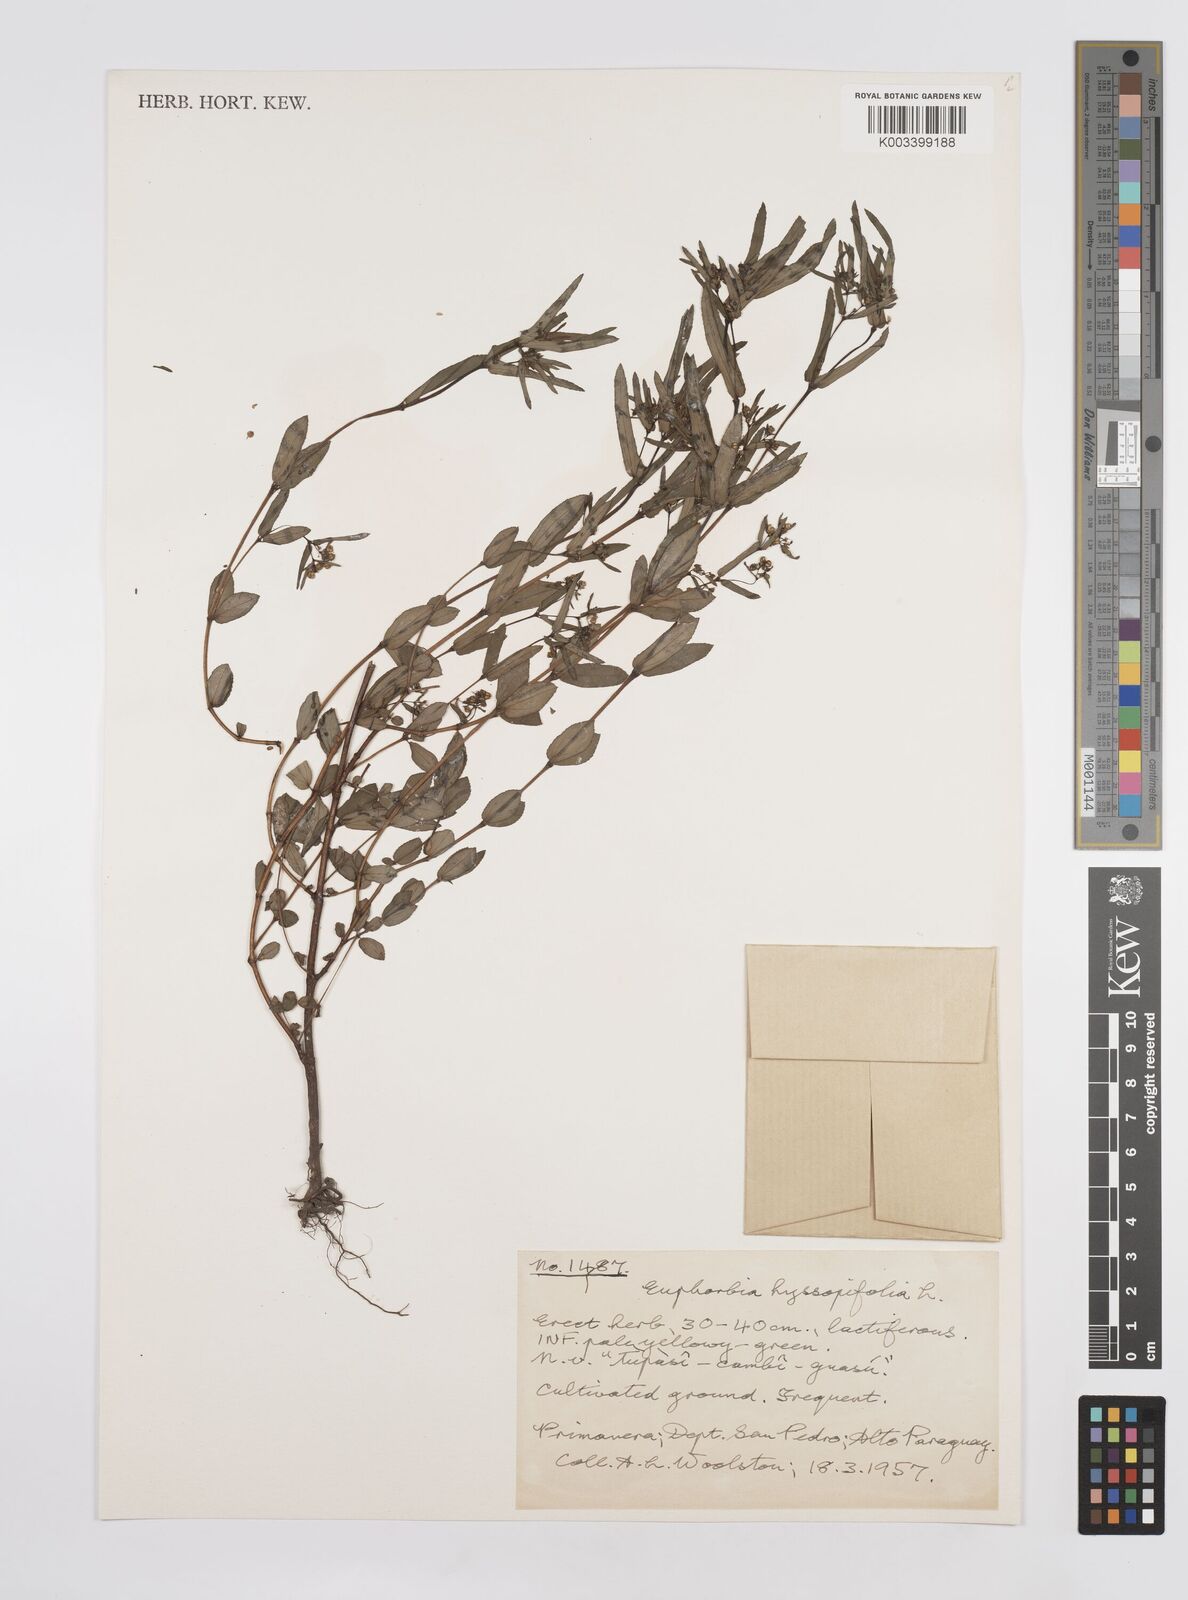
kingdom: Plantae
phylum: Tracheophyta
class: Magnoliopsida
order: Malpighiales
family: Euphorbiaceae
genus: Euphorbia
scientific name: Euphorbia hyssopifolia
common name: Hyssopleaf sandmat
